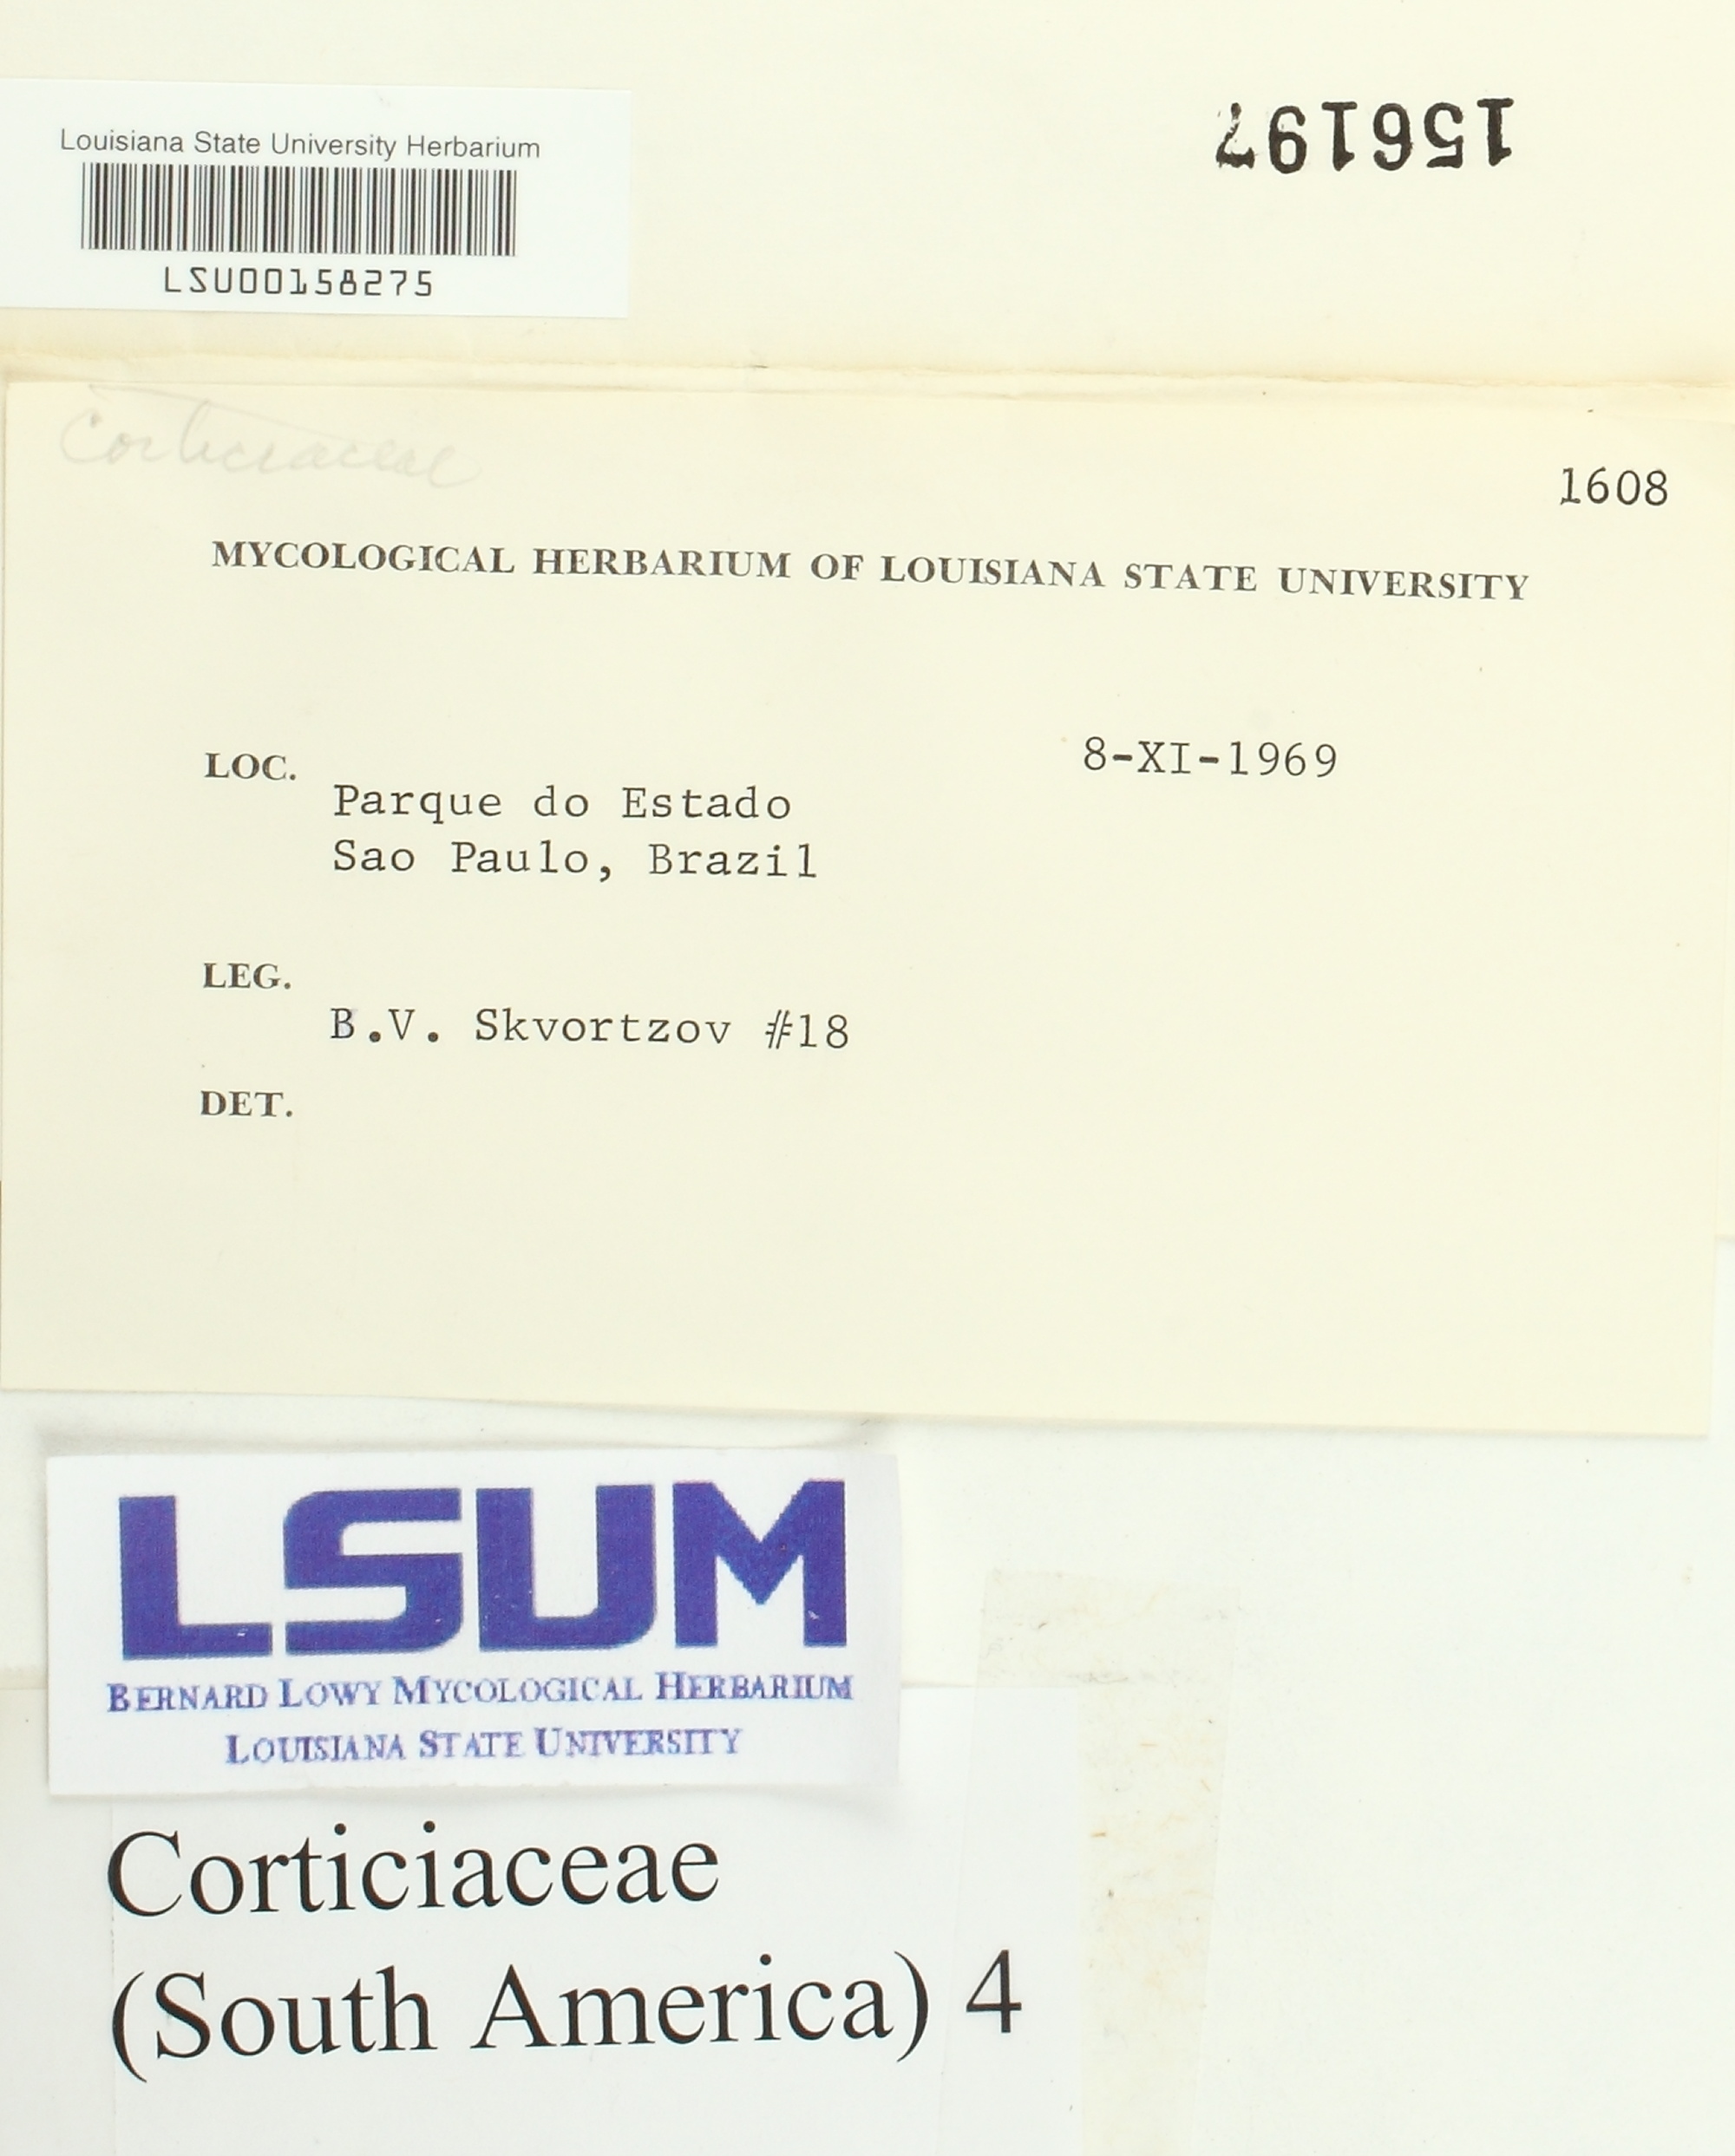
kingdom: Fungi
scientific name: Fungi
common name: Fungi
